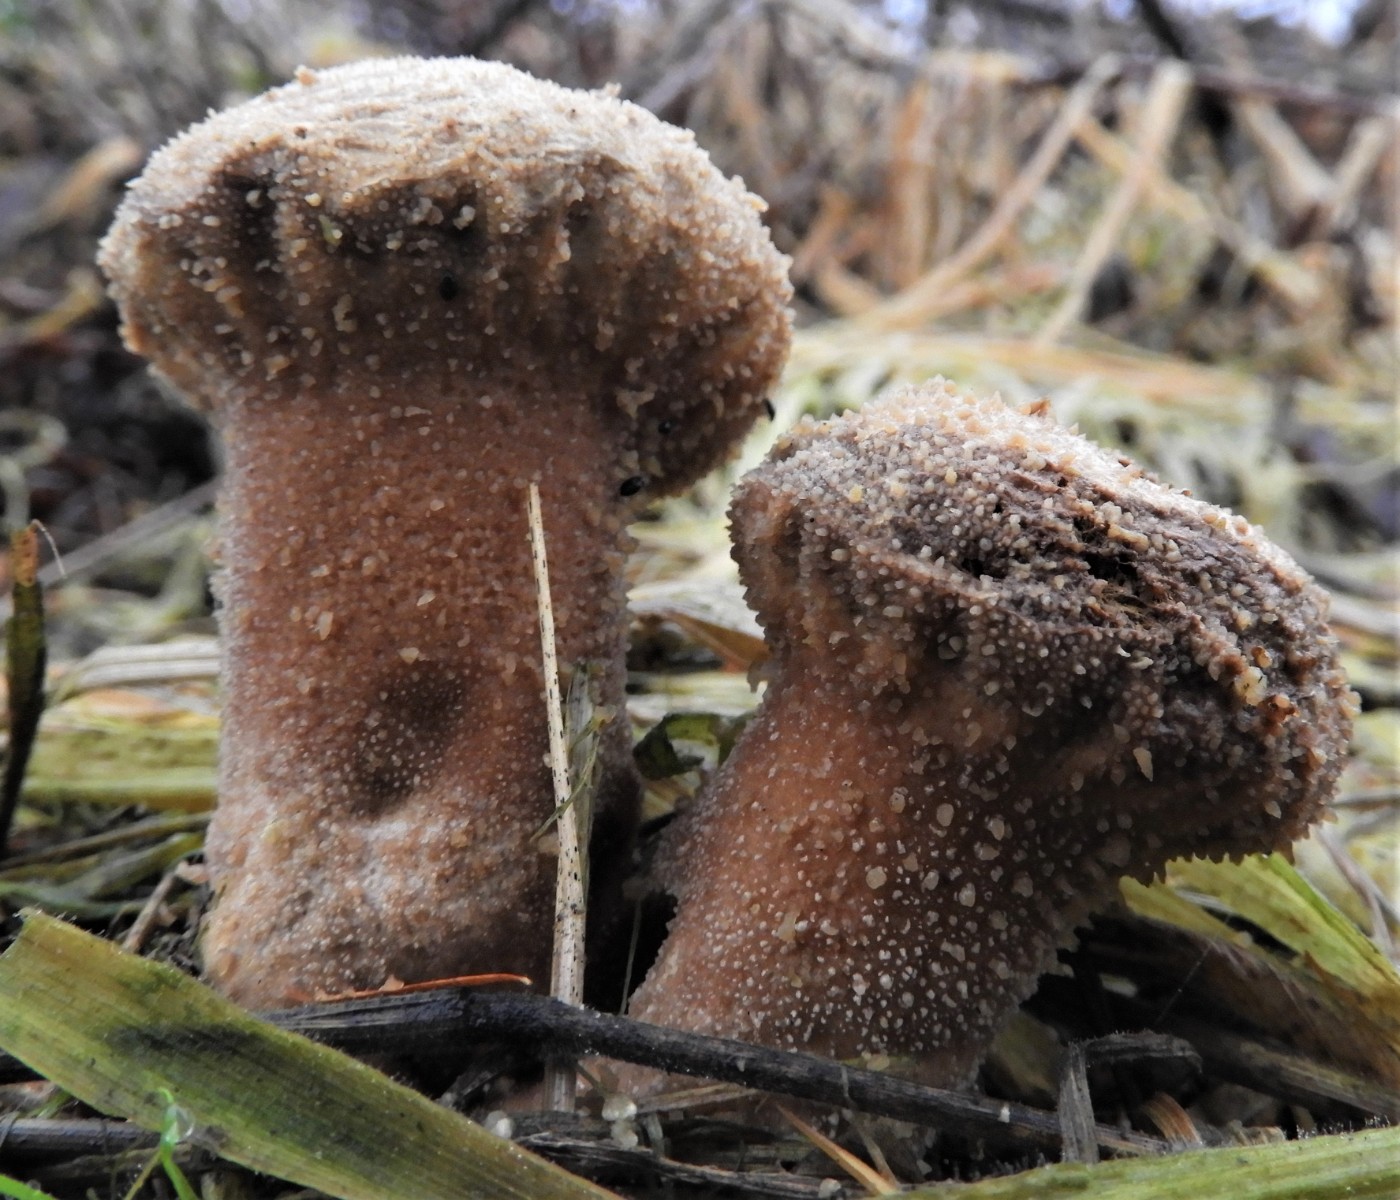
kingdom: Fungi
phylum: Basidiomycota
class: Agaricomycetes
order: Agaricales
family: Lycoperdaceae
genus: Lycoperdon
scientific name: Lycoperdon perlatum
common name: krystal-støvbold
